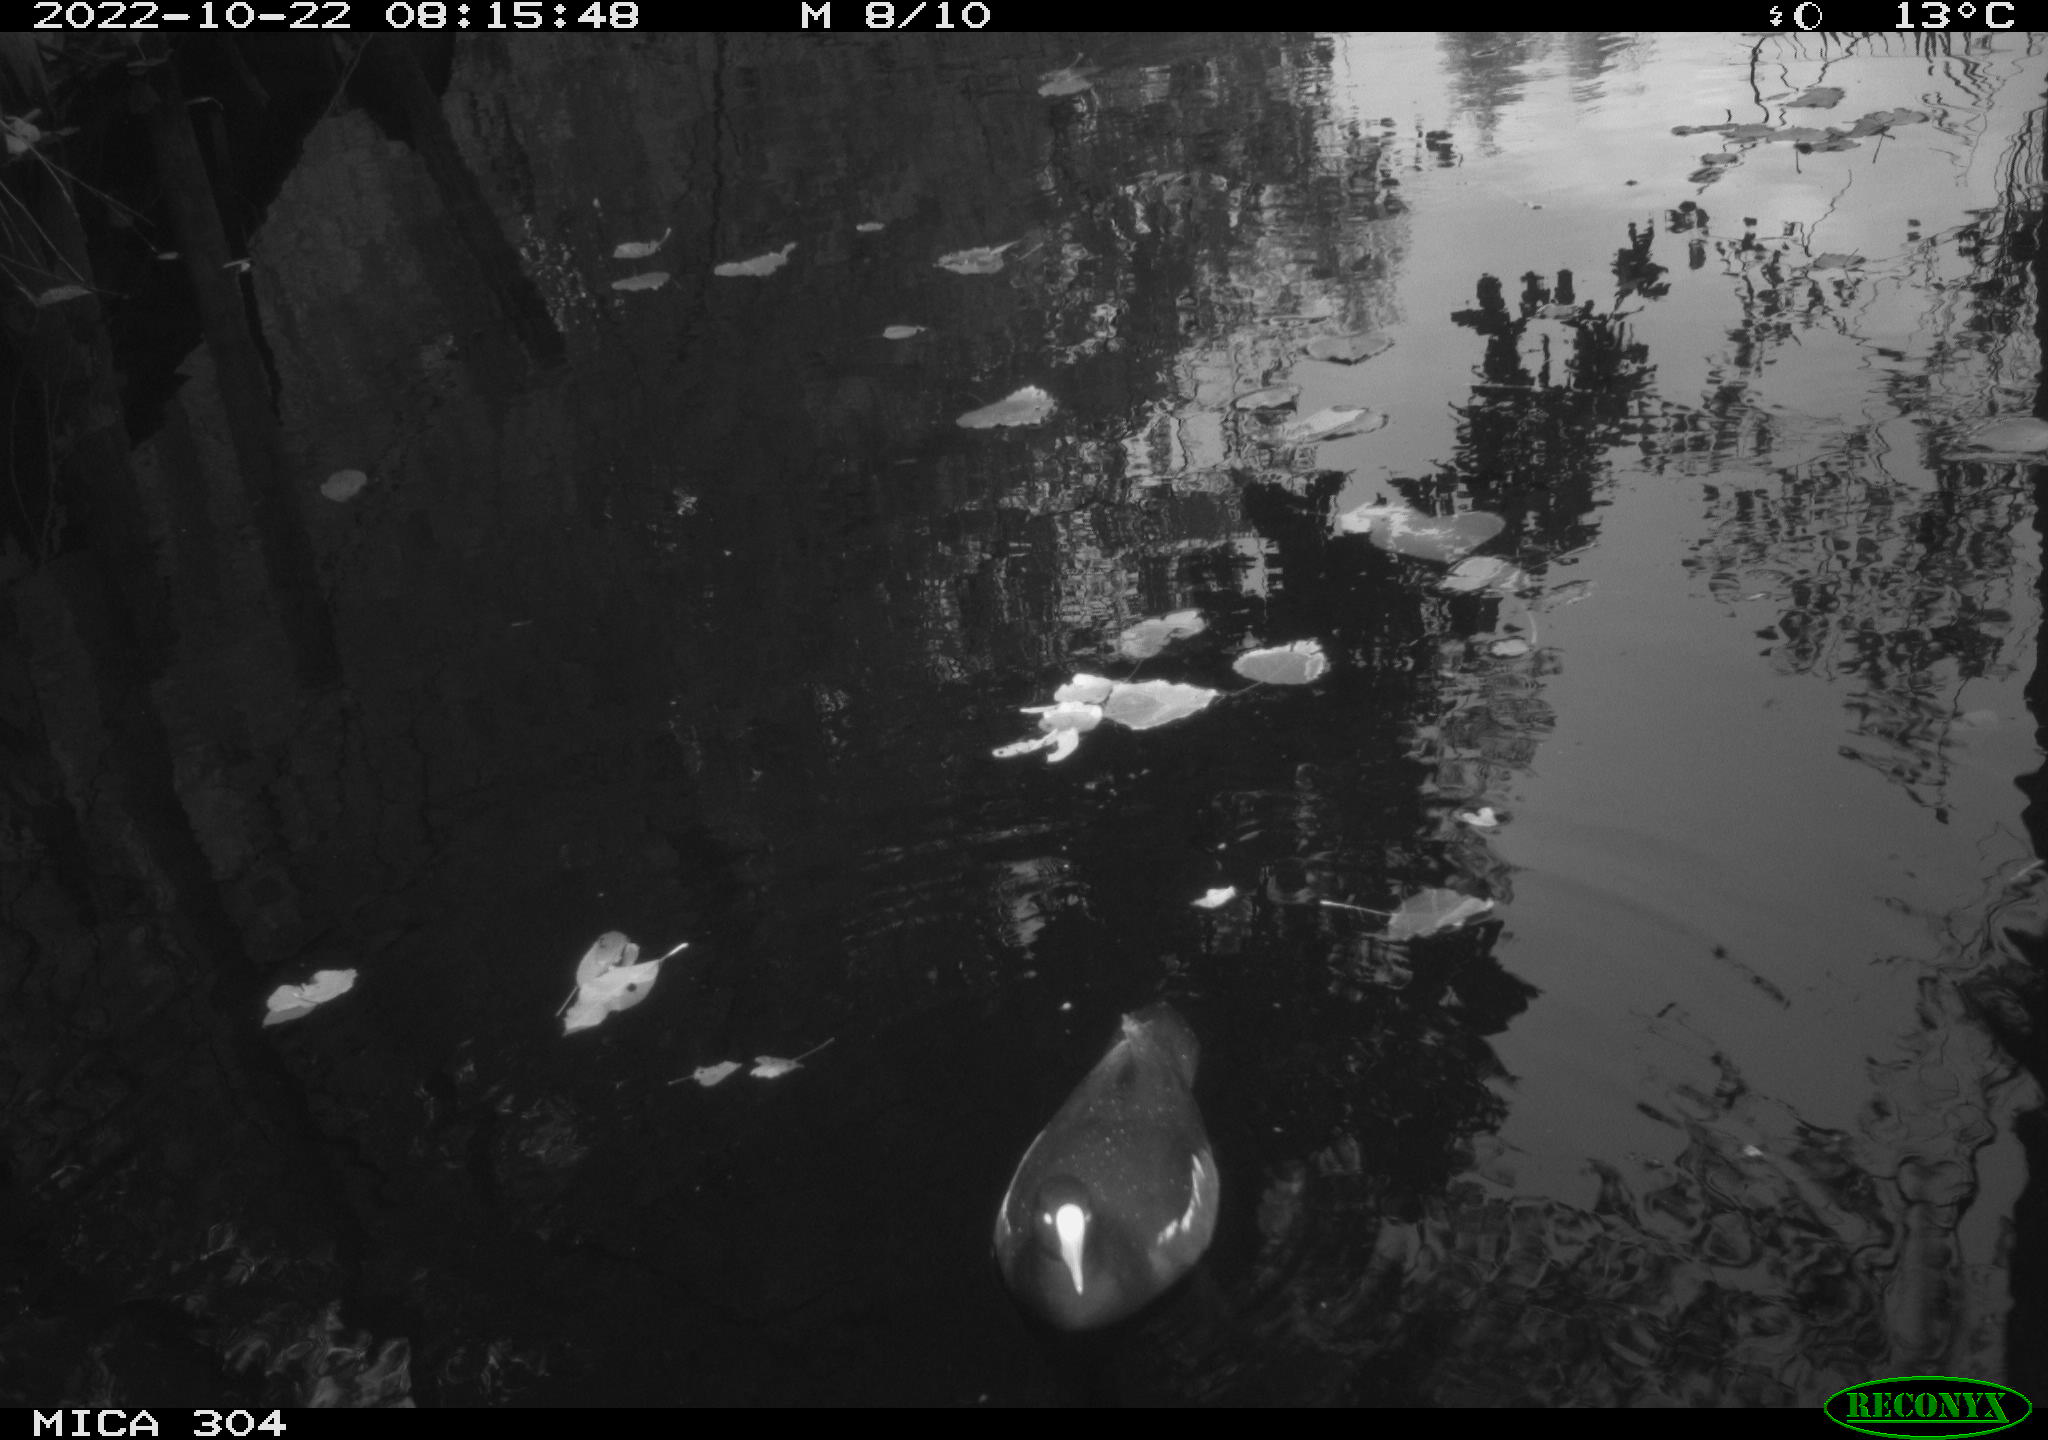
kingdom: Animalia
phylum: Chordata
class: Aves
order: Gruiformes
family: Rallidae
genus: Gallinula
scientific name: Gallinula chloropus
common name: Common moorhen
